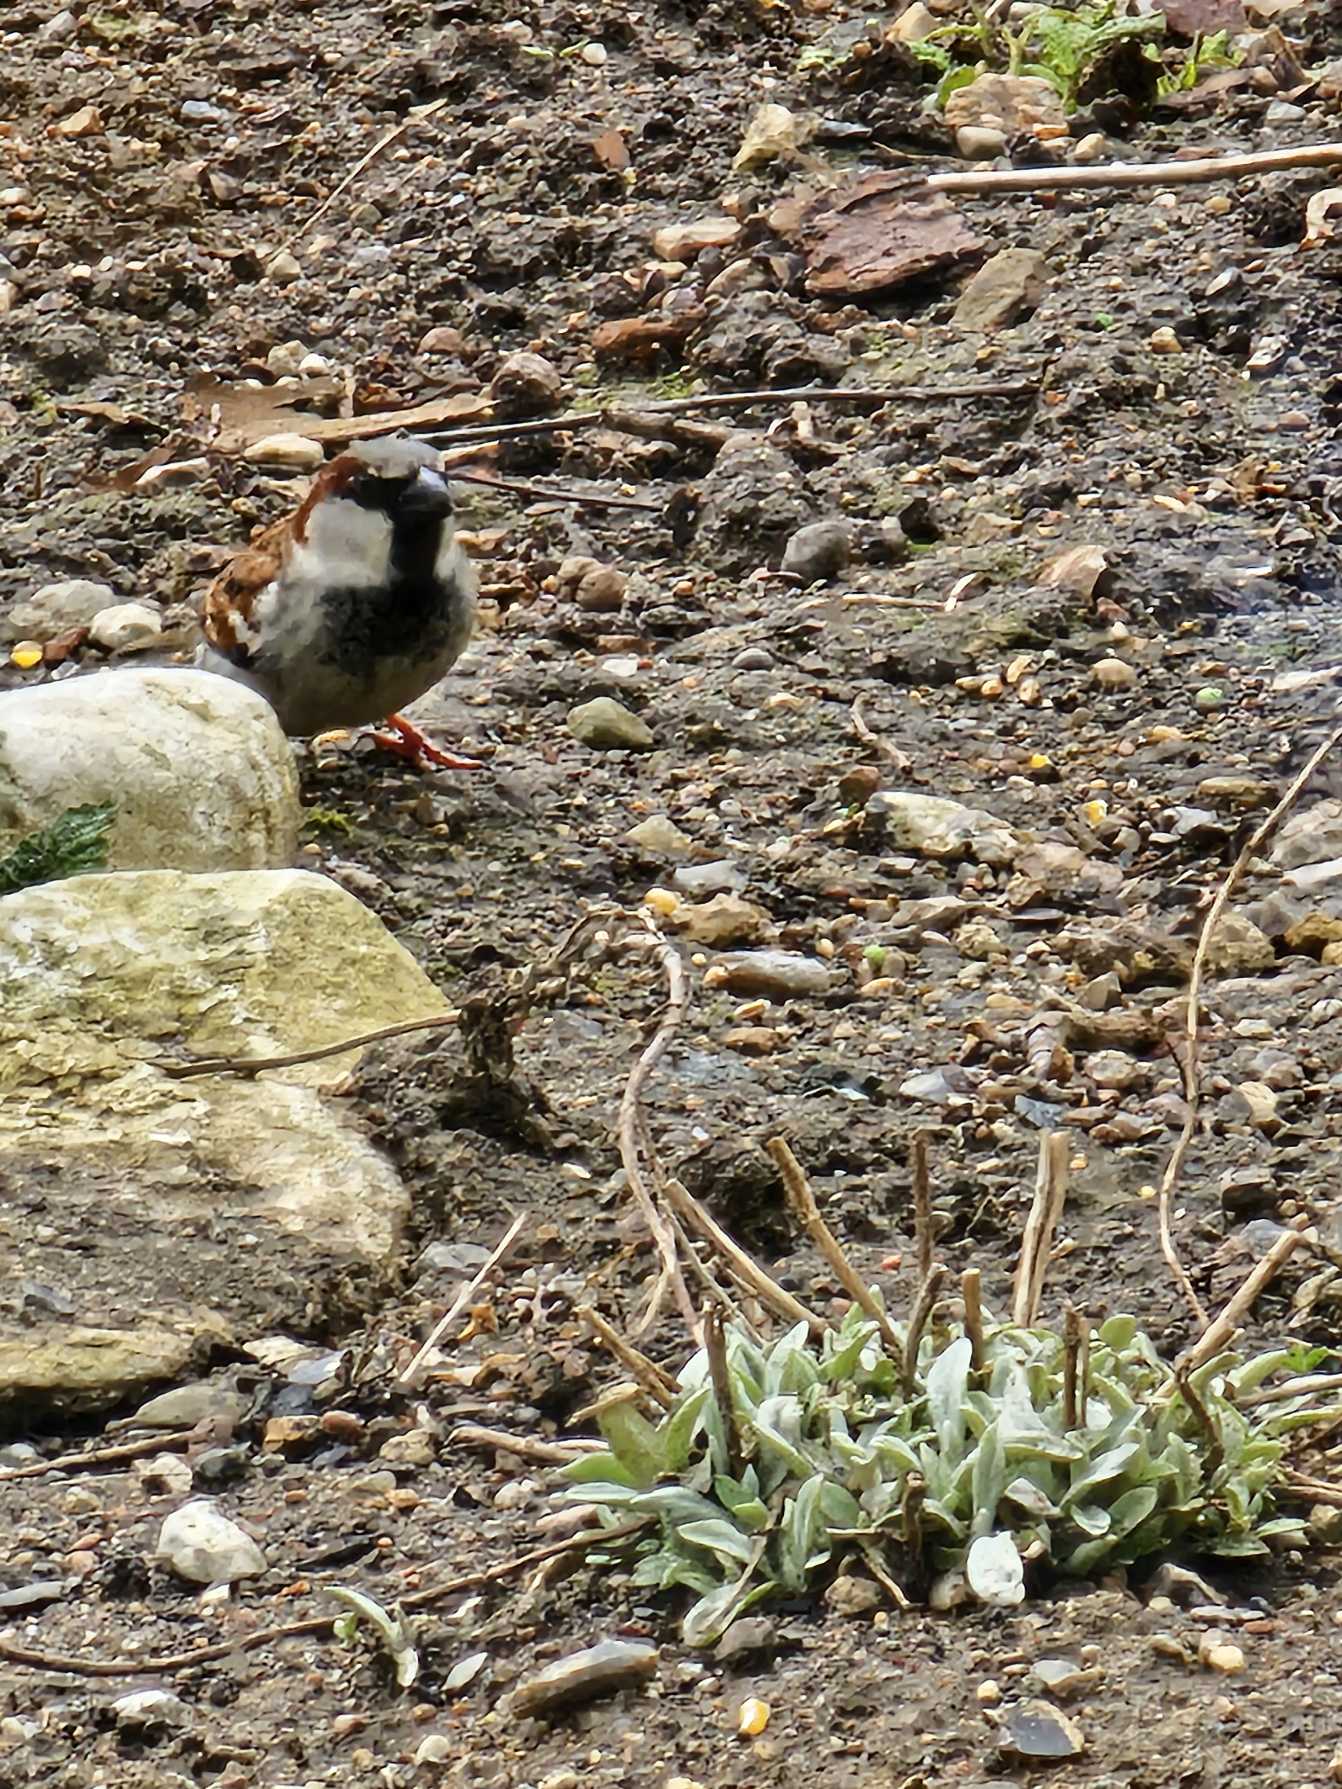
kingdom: Animalia
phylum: Chordata
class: Aves
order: Passeriformes
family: Passeridae
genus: Passer
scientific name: Passer domesticus
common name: Gråspurv
